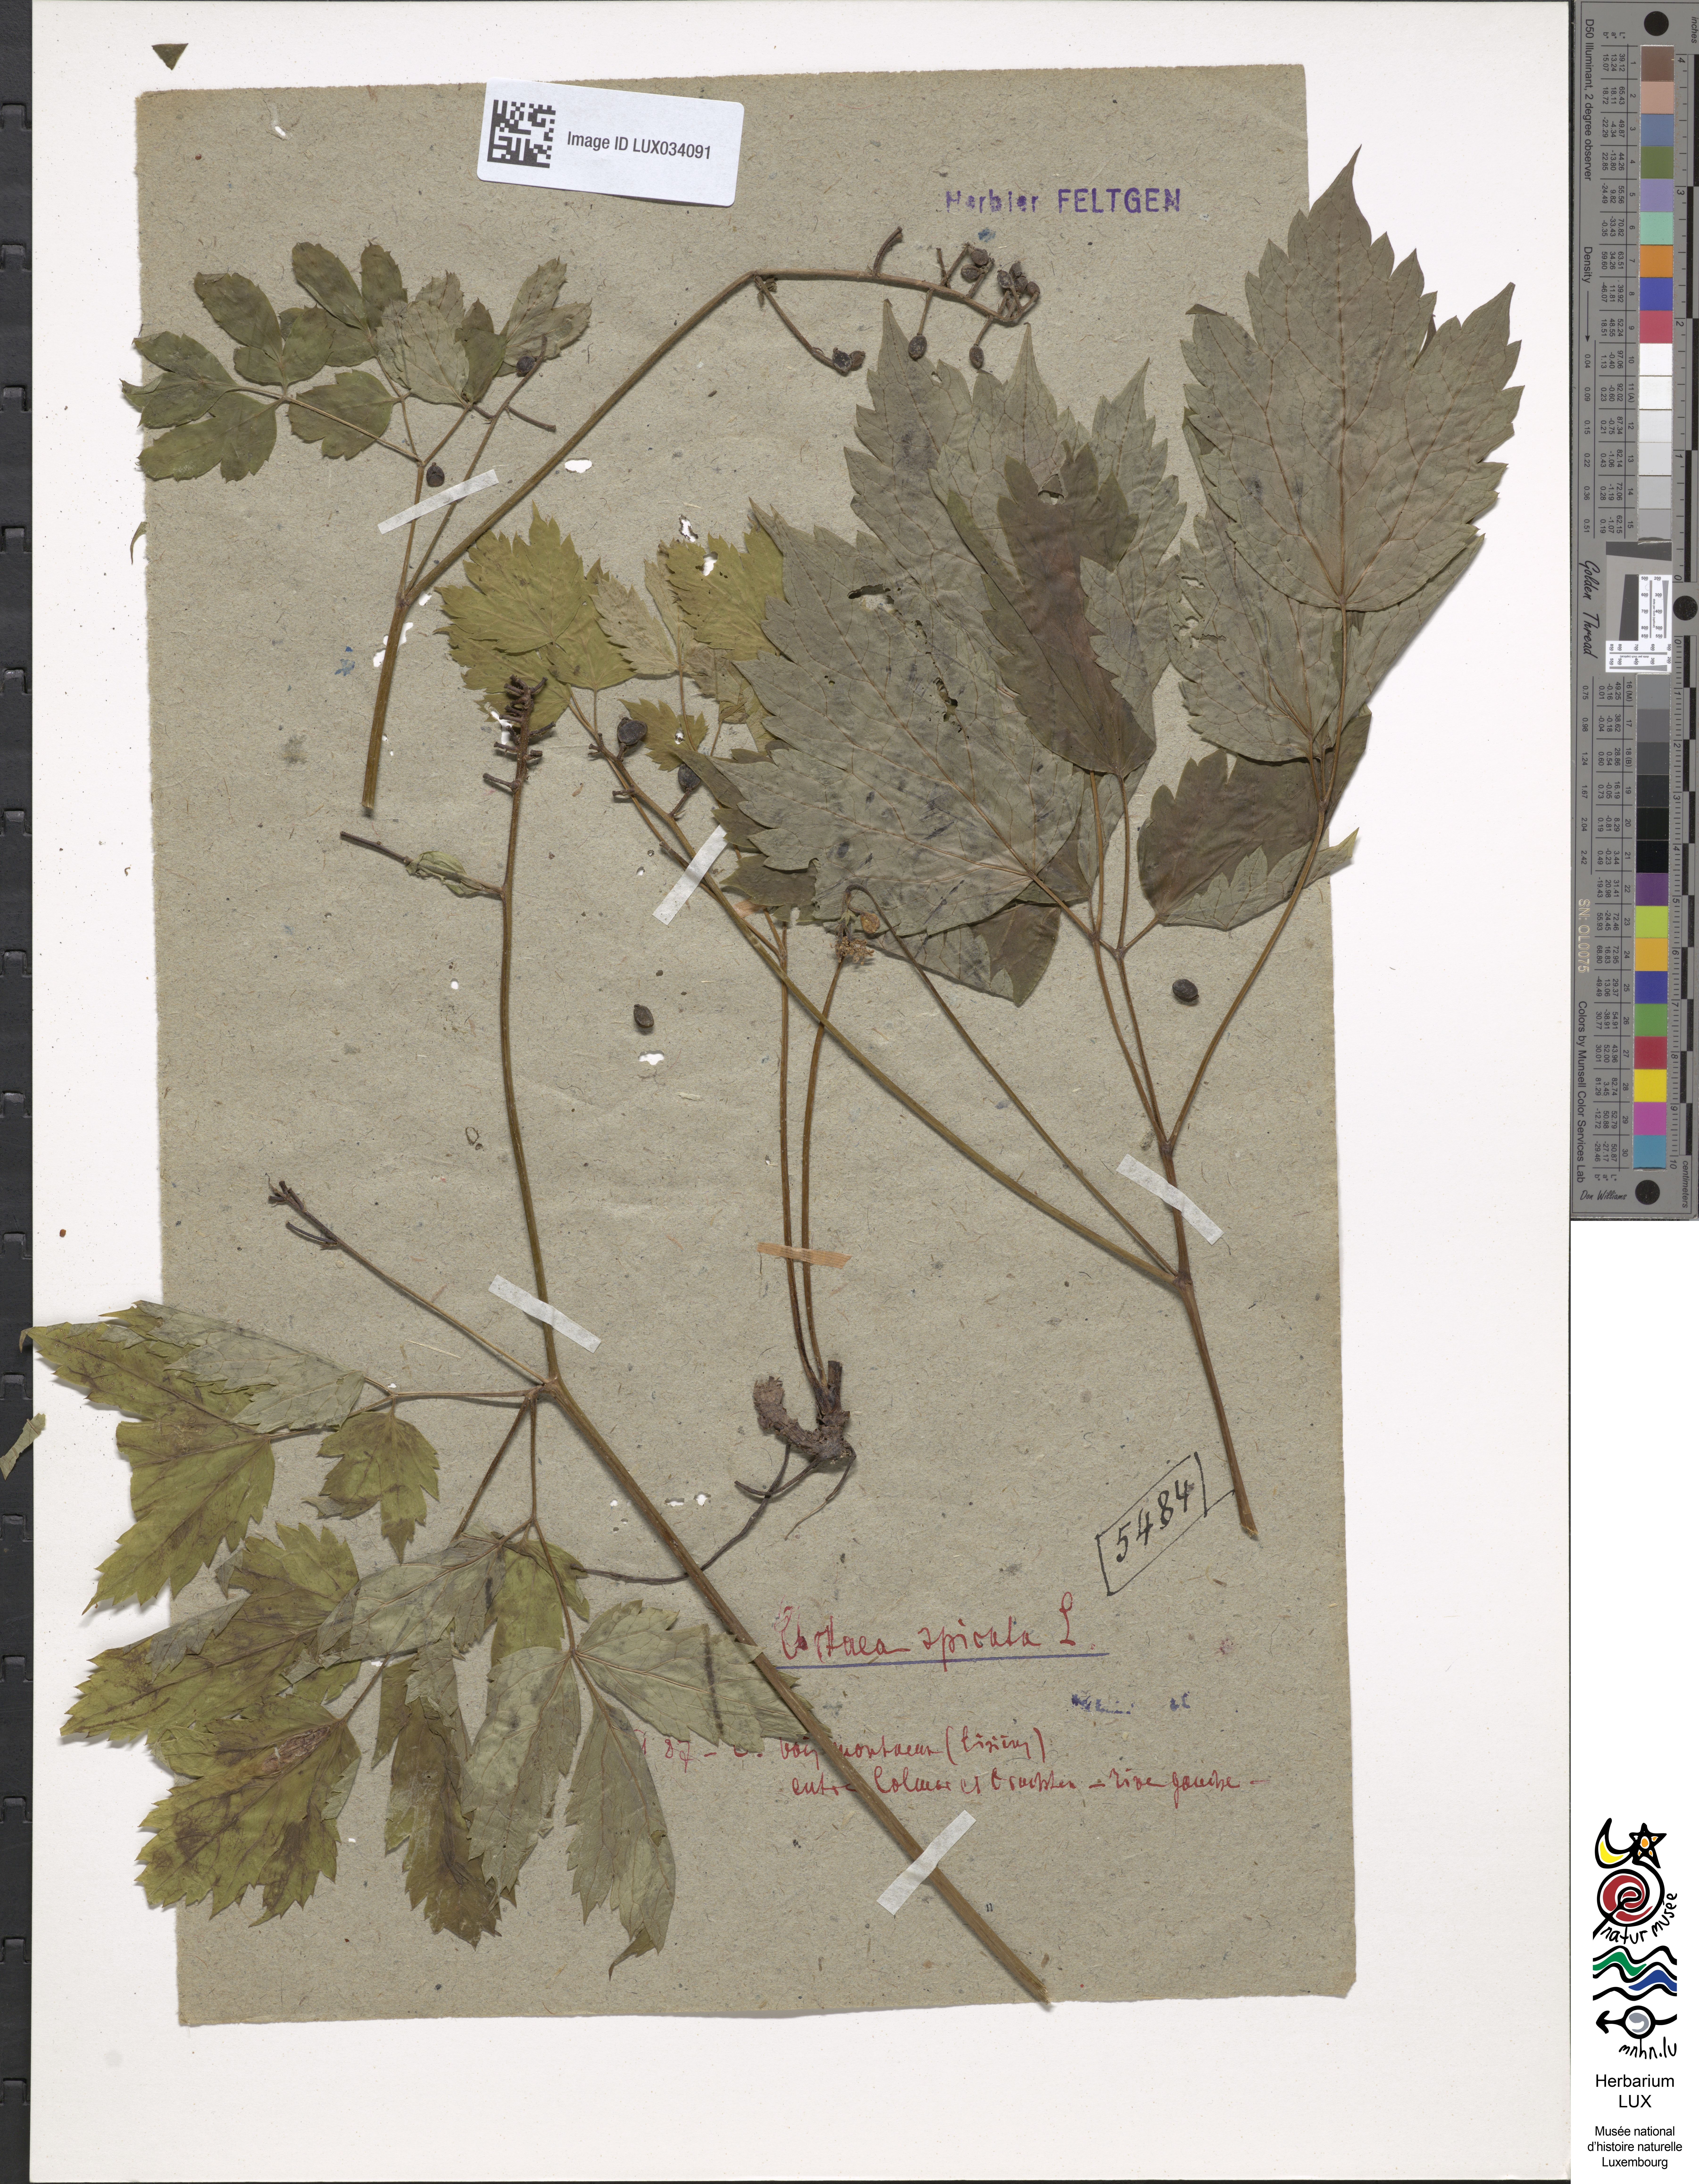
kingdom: Plantae
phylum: Tracheophyta
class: Magnoliopsida
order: Ranunculales
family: Ranunculaceae
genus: Actaea
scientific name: Actaea spicata
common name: Baneberry
